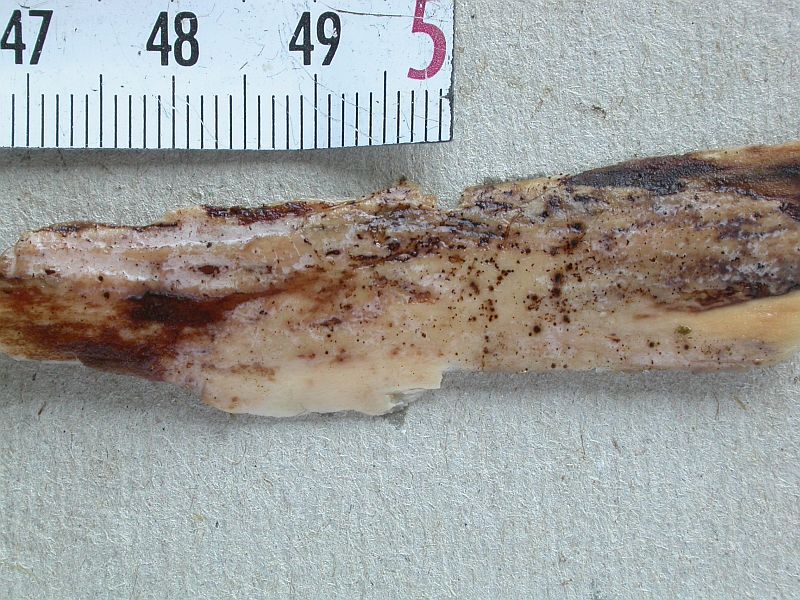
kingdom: Fungi
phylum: Basidiomycota
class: Tremellomycetes
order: Tremellales
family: Exidiaceae
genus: Exidiopsis
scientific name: Exidiopsis effusa
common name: smuk bævrehinde
